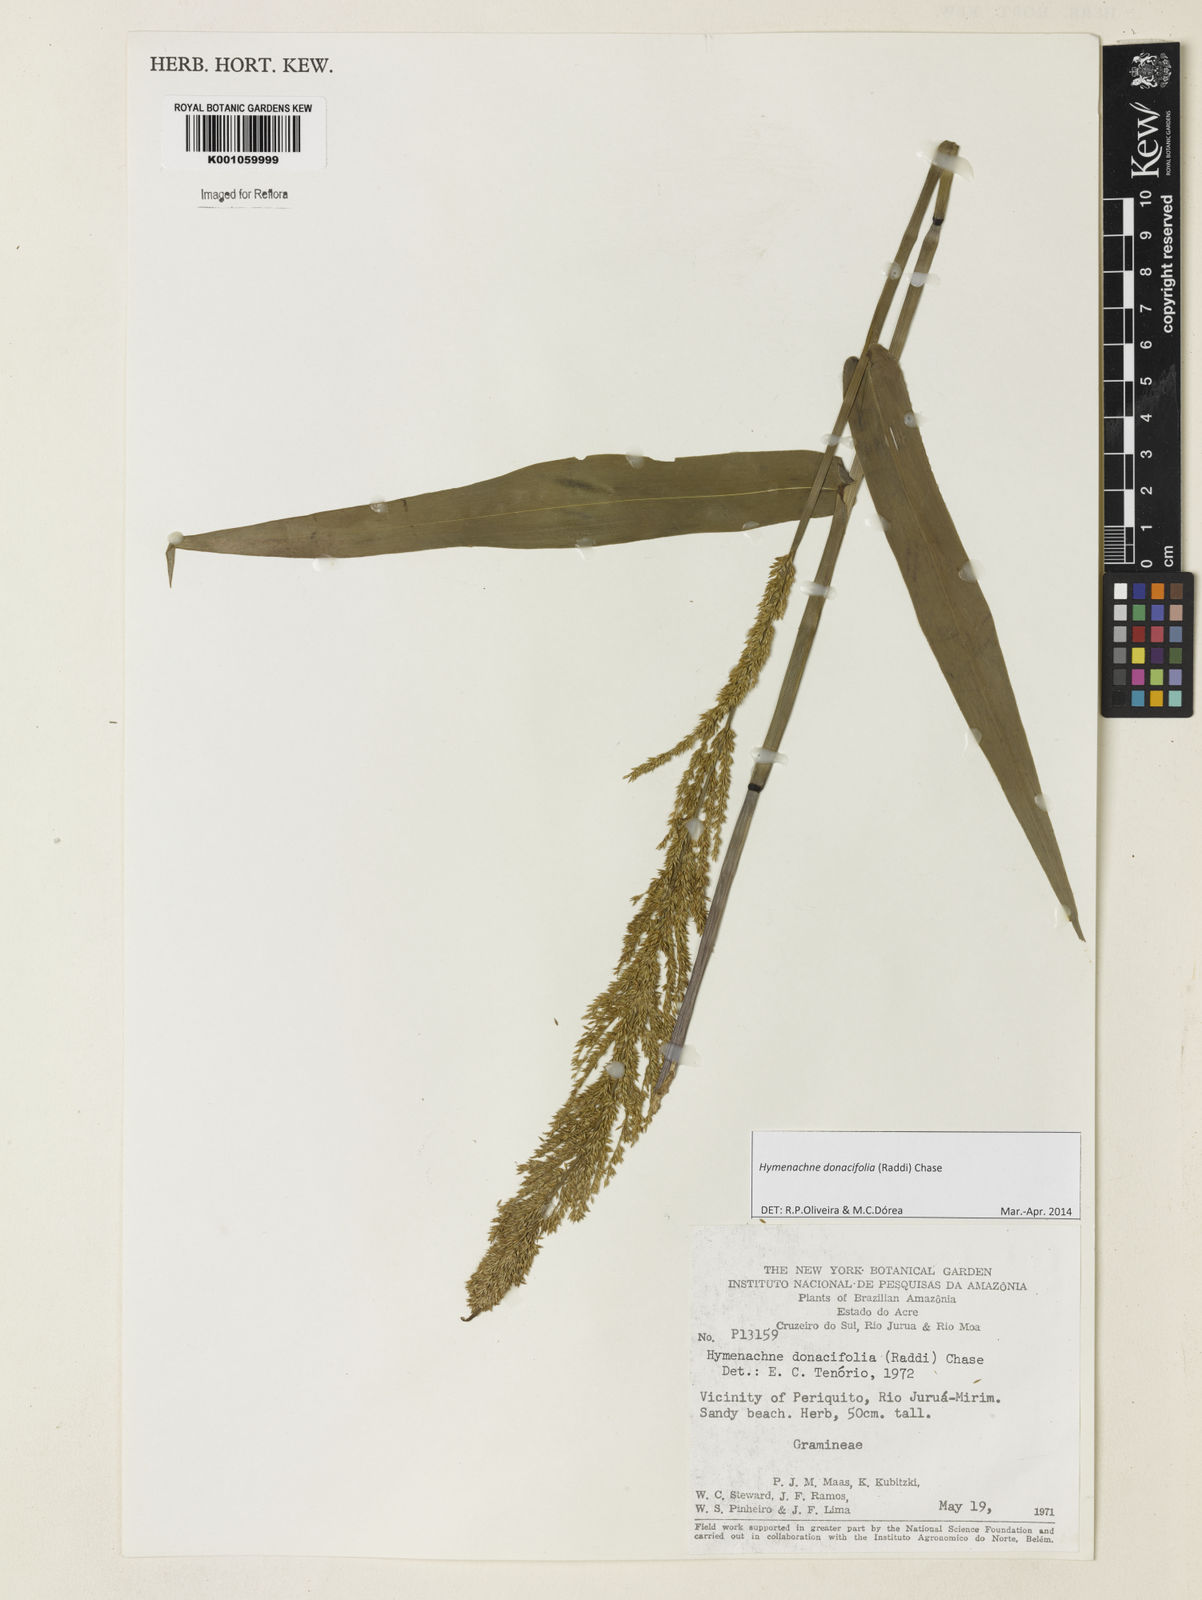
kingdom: Plantae
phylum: Tracheophyta
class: Liliopsida
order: Poales
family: Poaceae
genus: Hymenachne
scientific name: Hymenachne donacifolia
